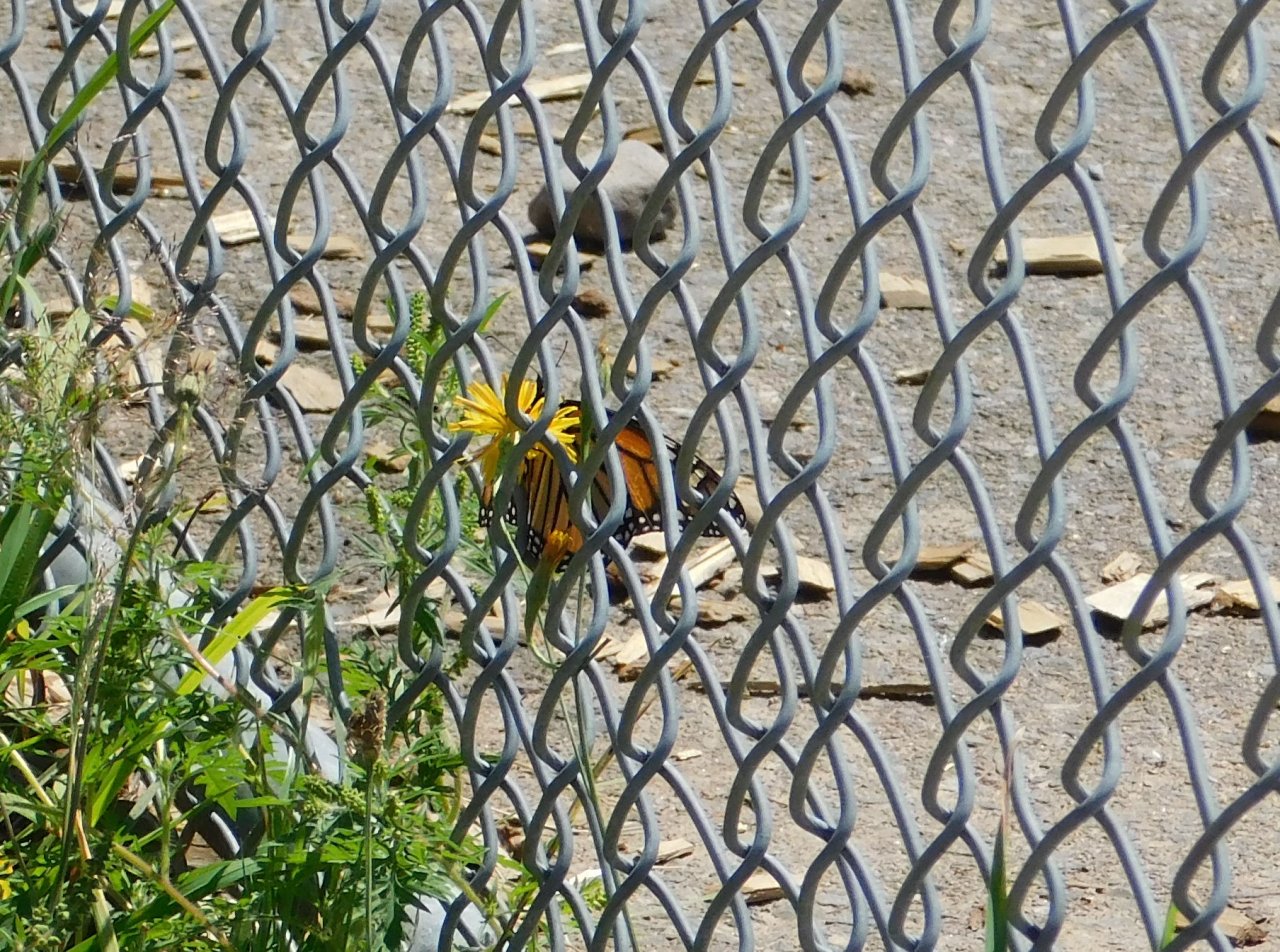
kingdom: Animalia
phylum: Arthropoda
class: Insecta
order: Lepidoptera
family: Nymphalidae
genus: Danaus
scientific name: Danaus plexippus
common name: Monarch
